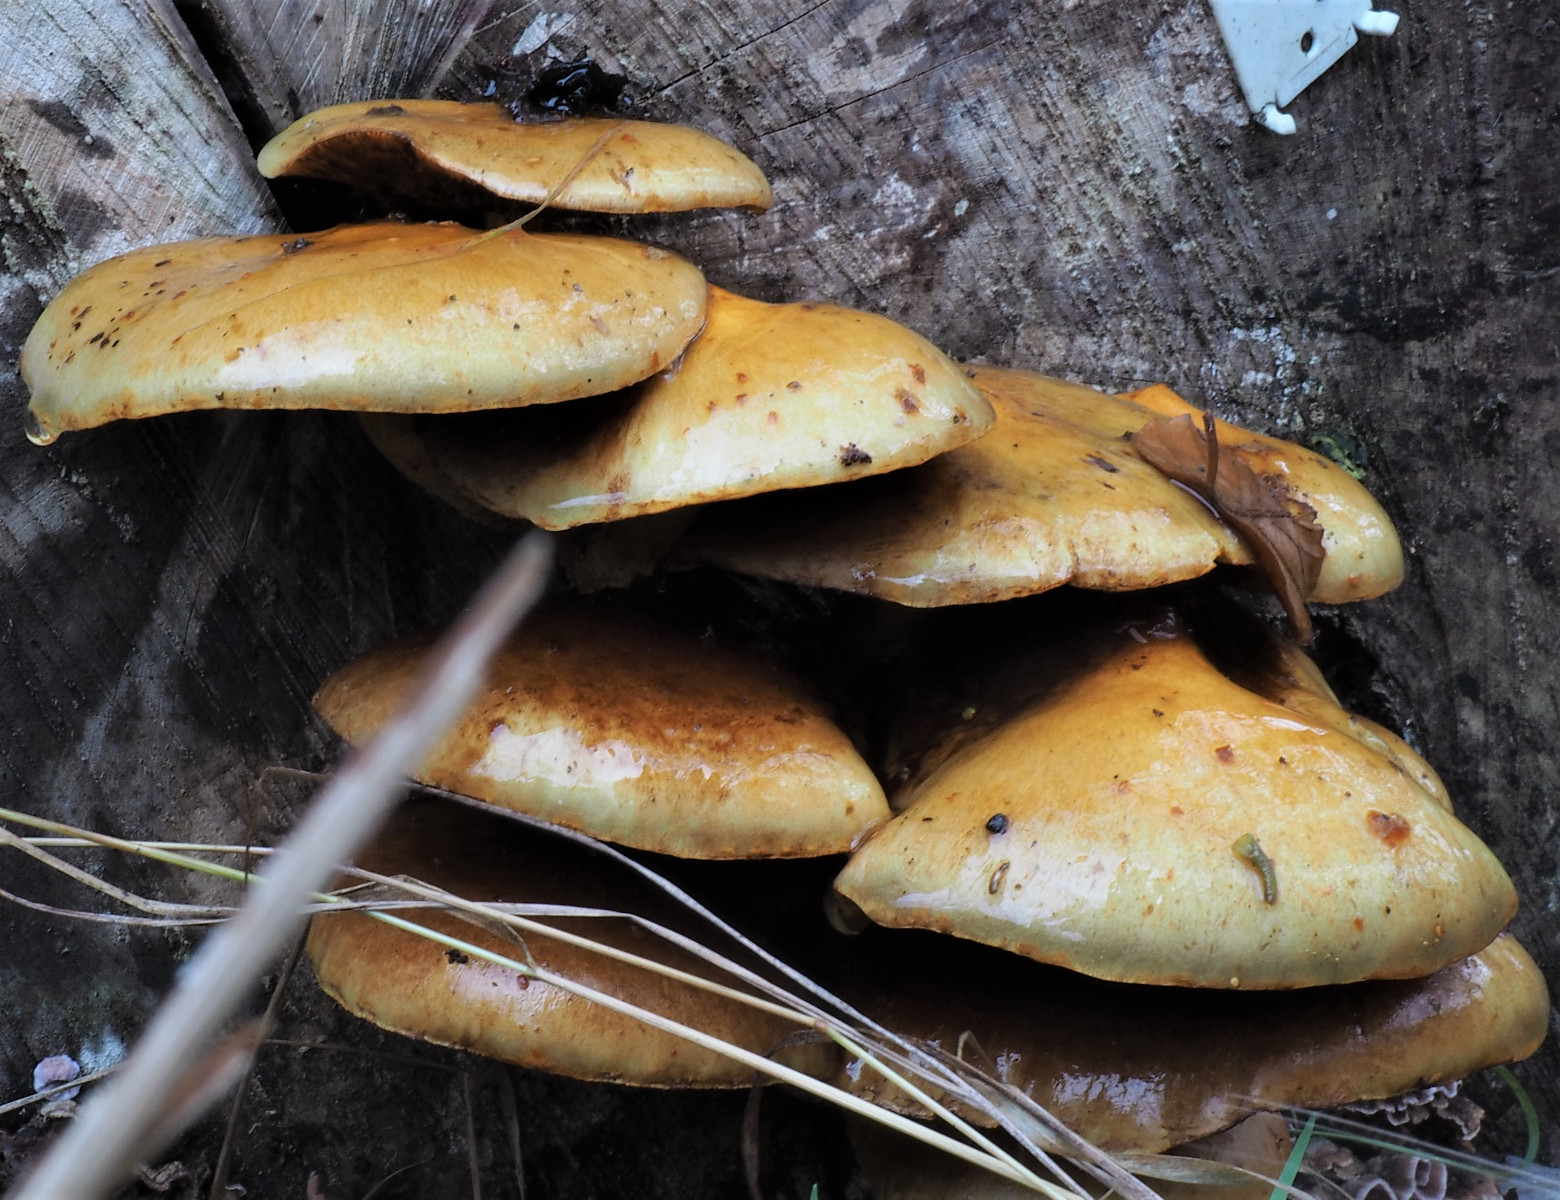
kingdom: Fungi
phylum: Basidiomycota
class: Agaricomycetes
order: Agaricales
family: Strophariaceae
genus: Pholiota
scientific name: Pholiota adiposa
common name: højtsiddende skælhat
